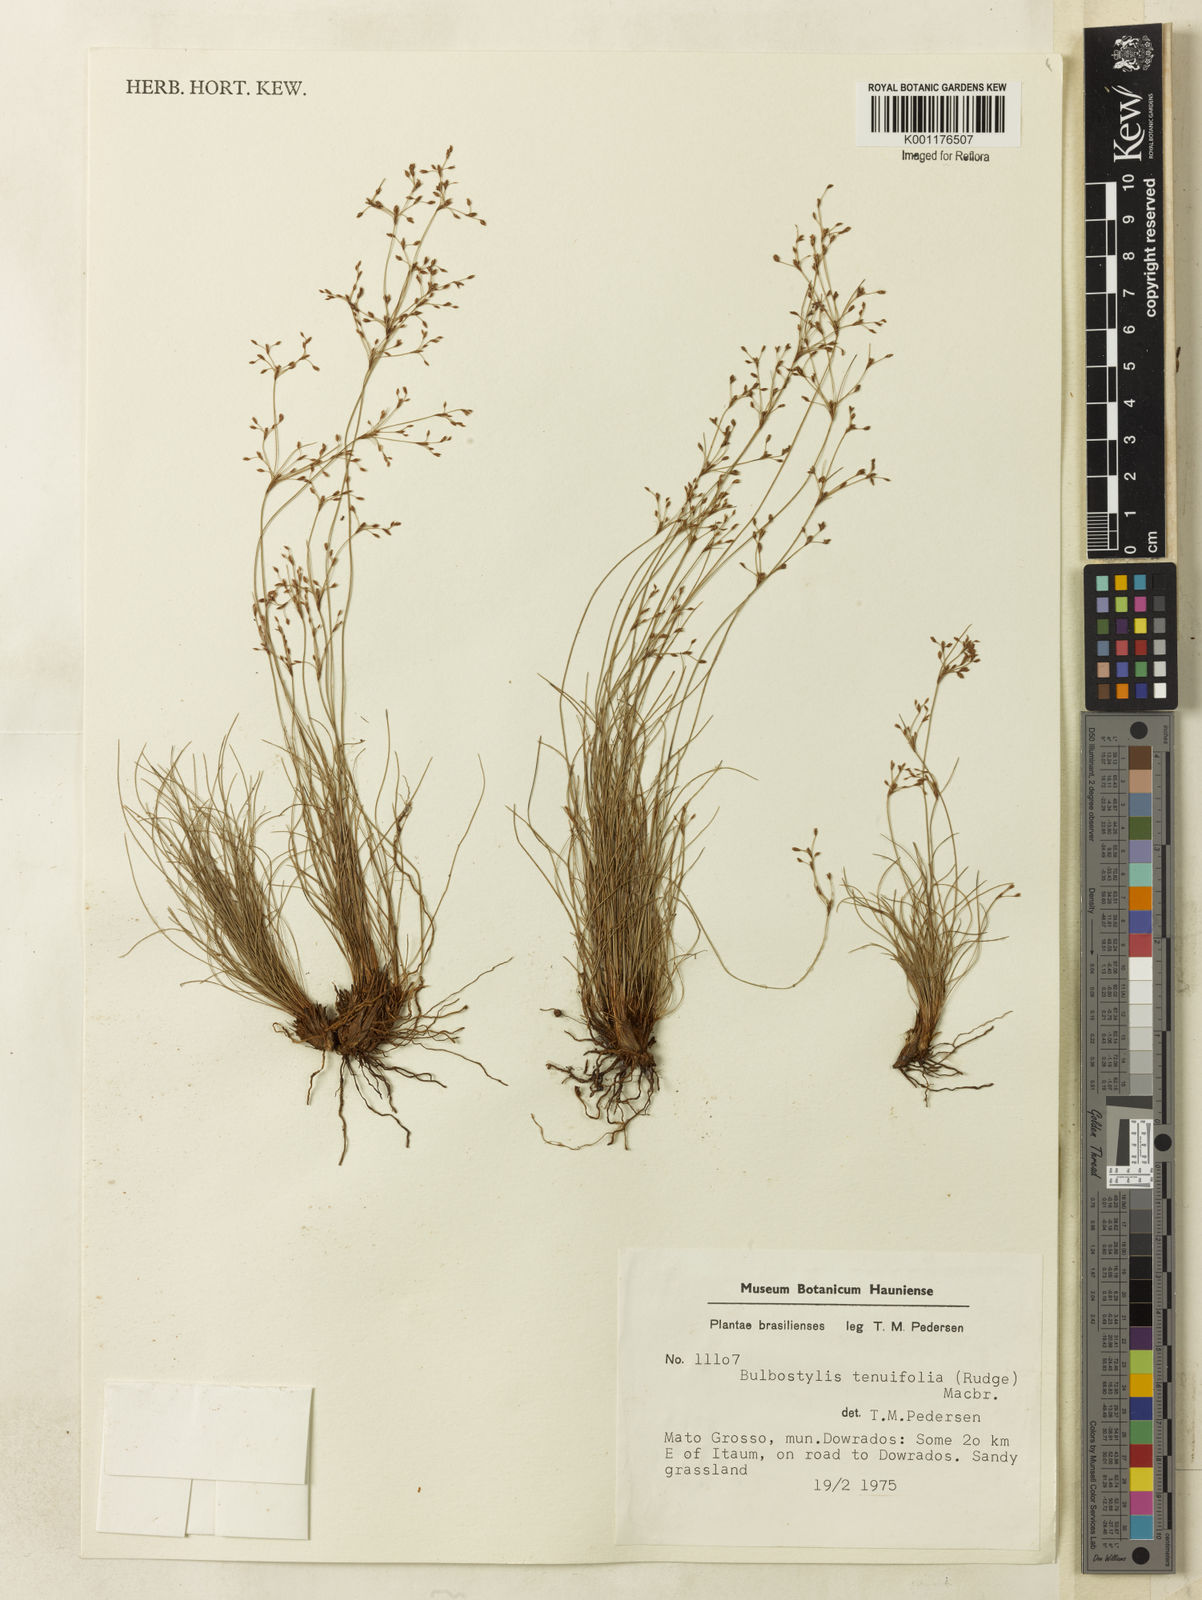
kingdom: Plantae
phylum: Tracheophyta
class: Liliopsida
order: Poales
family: Cyperaceae
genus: Bulbostylis
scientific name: Bulbostylis tenuifolia
